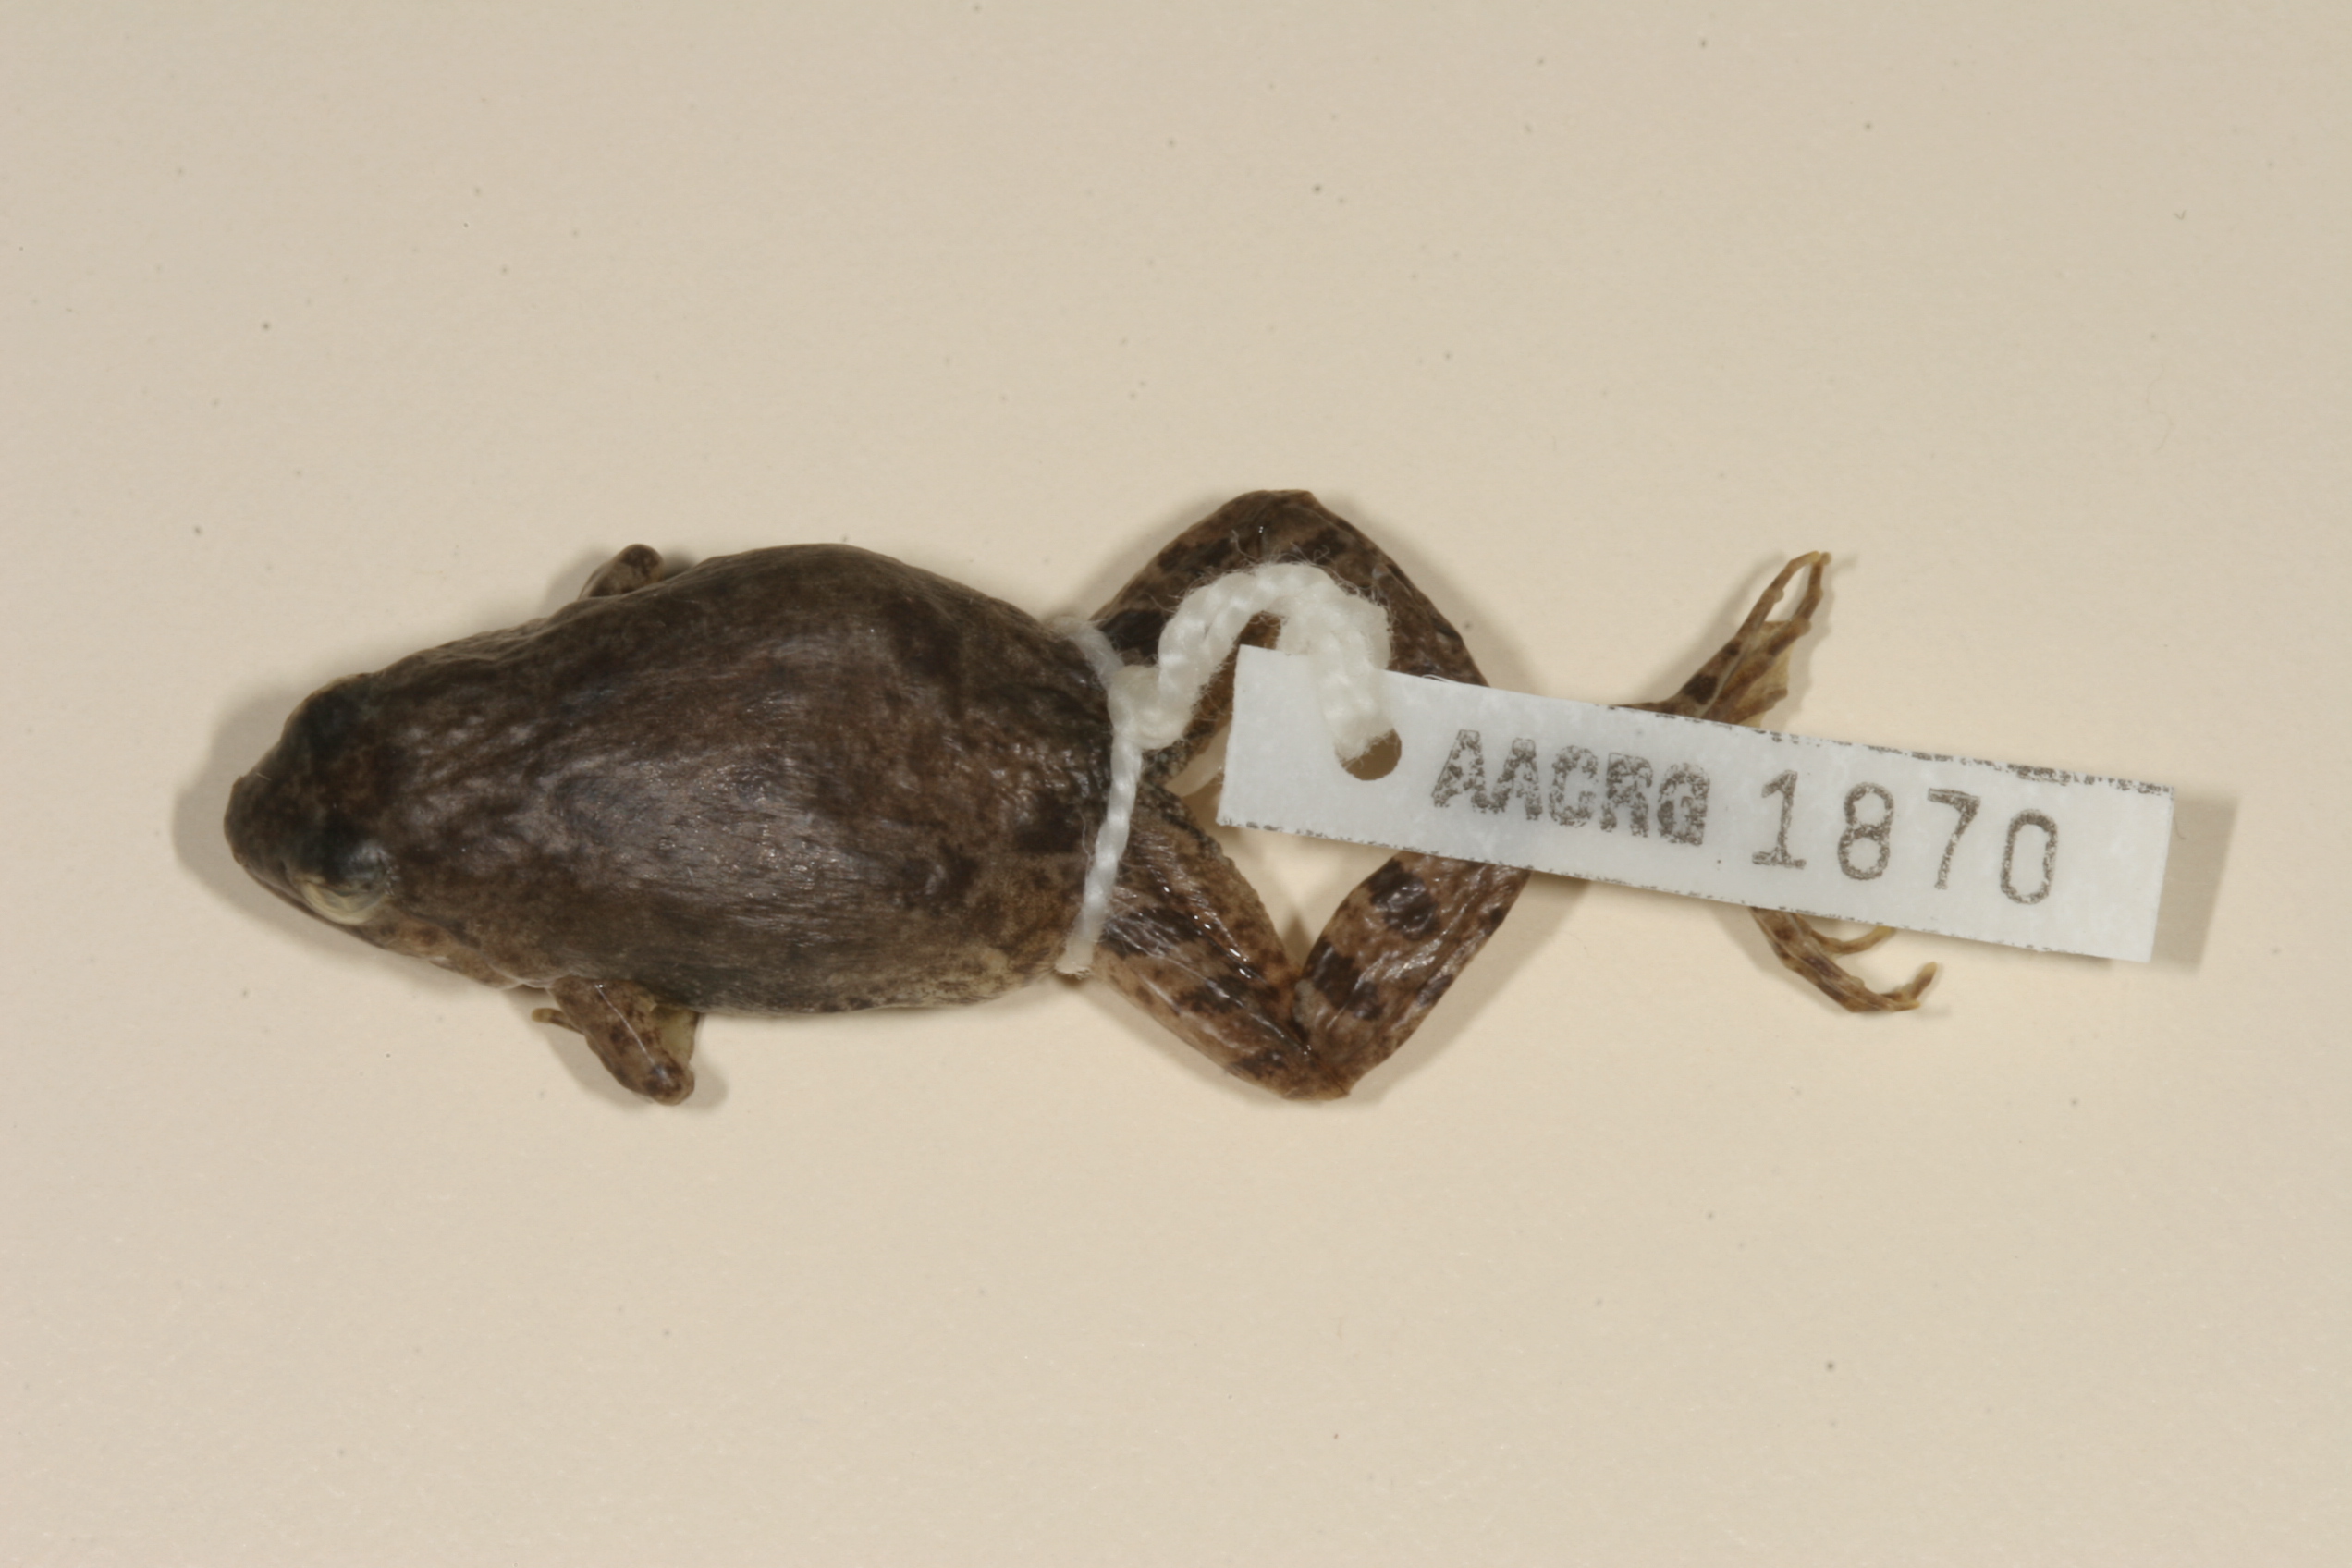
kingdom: Animalia
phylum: Chordata
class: Amphibia
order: Anura
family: Phrynobatrachidae
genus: Phrynobatrachus
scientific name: Phrynobatrachus natalensis
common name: Snoring puddle frog
